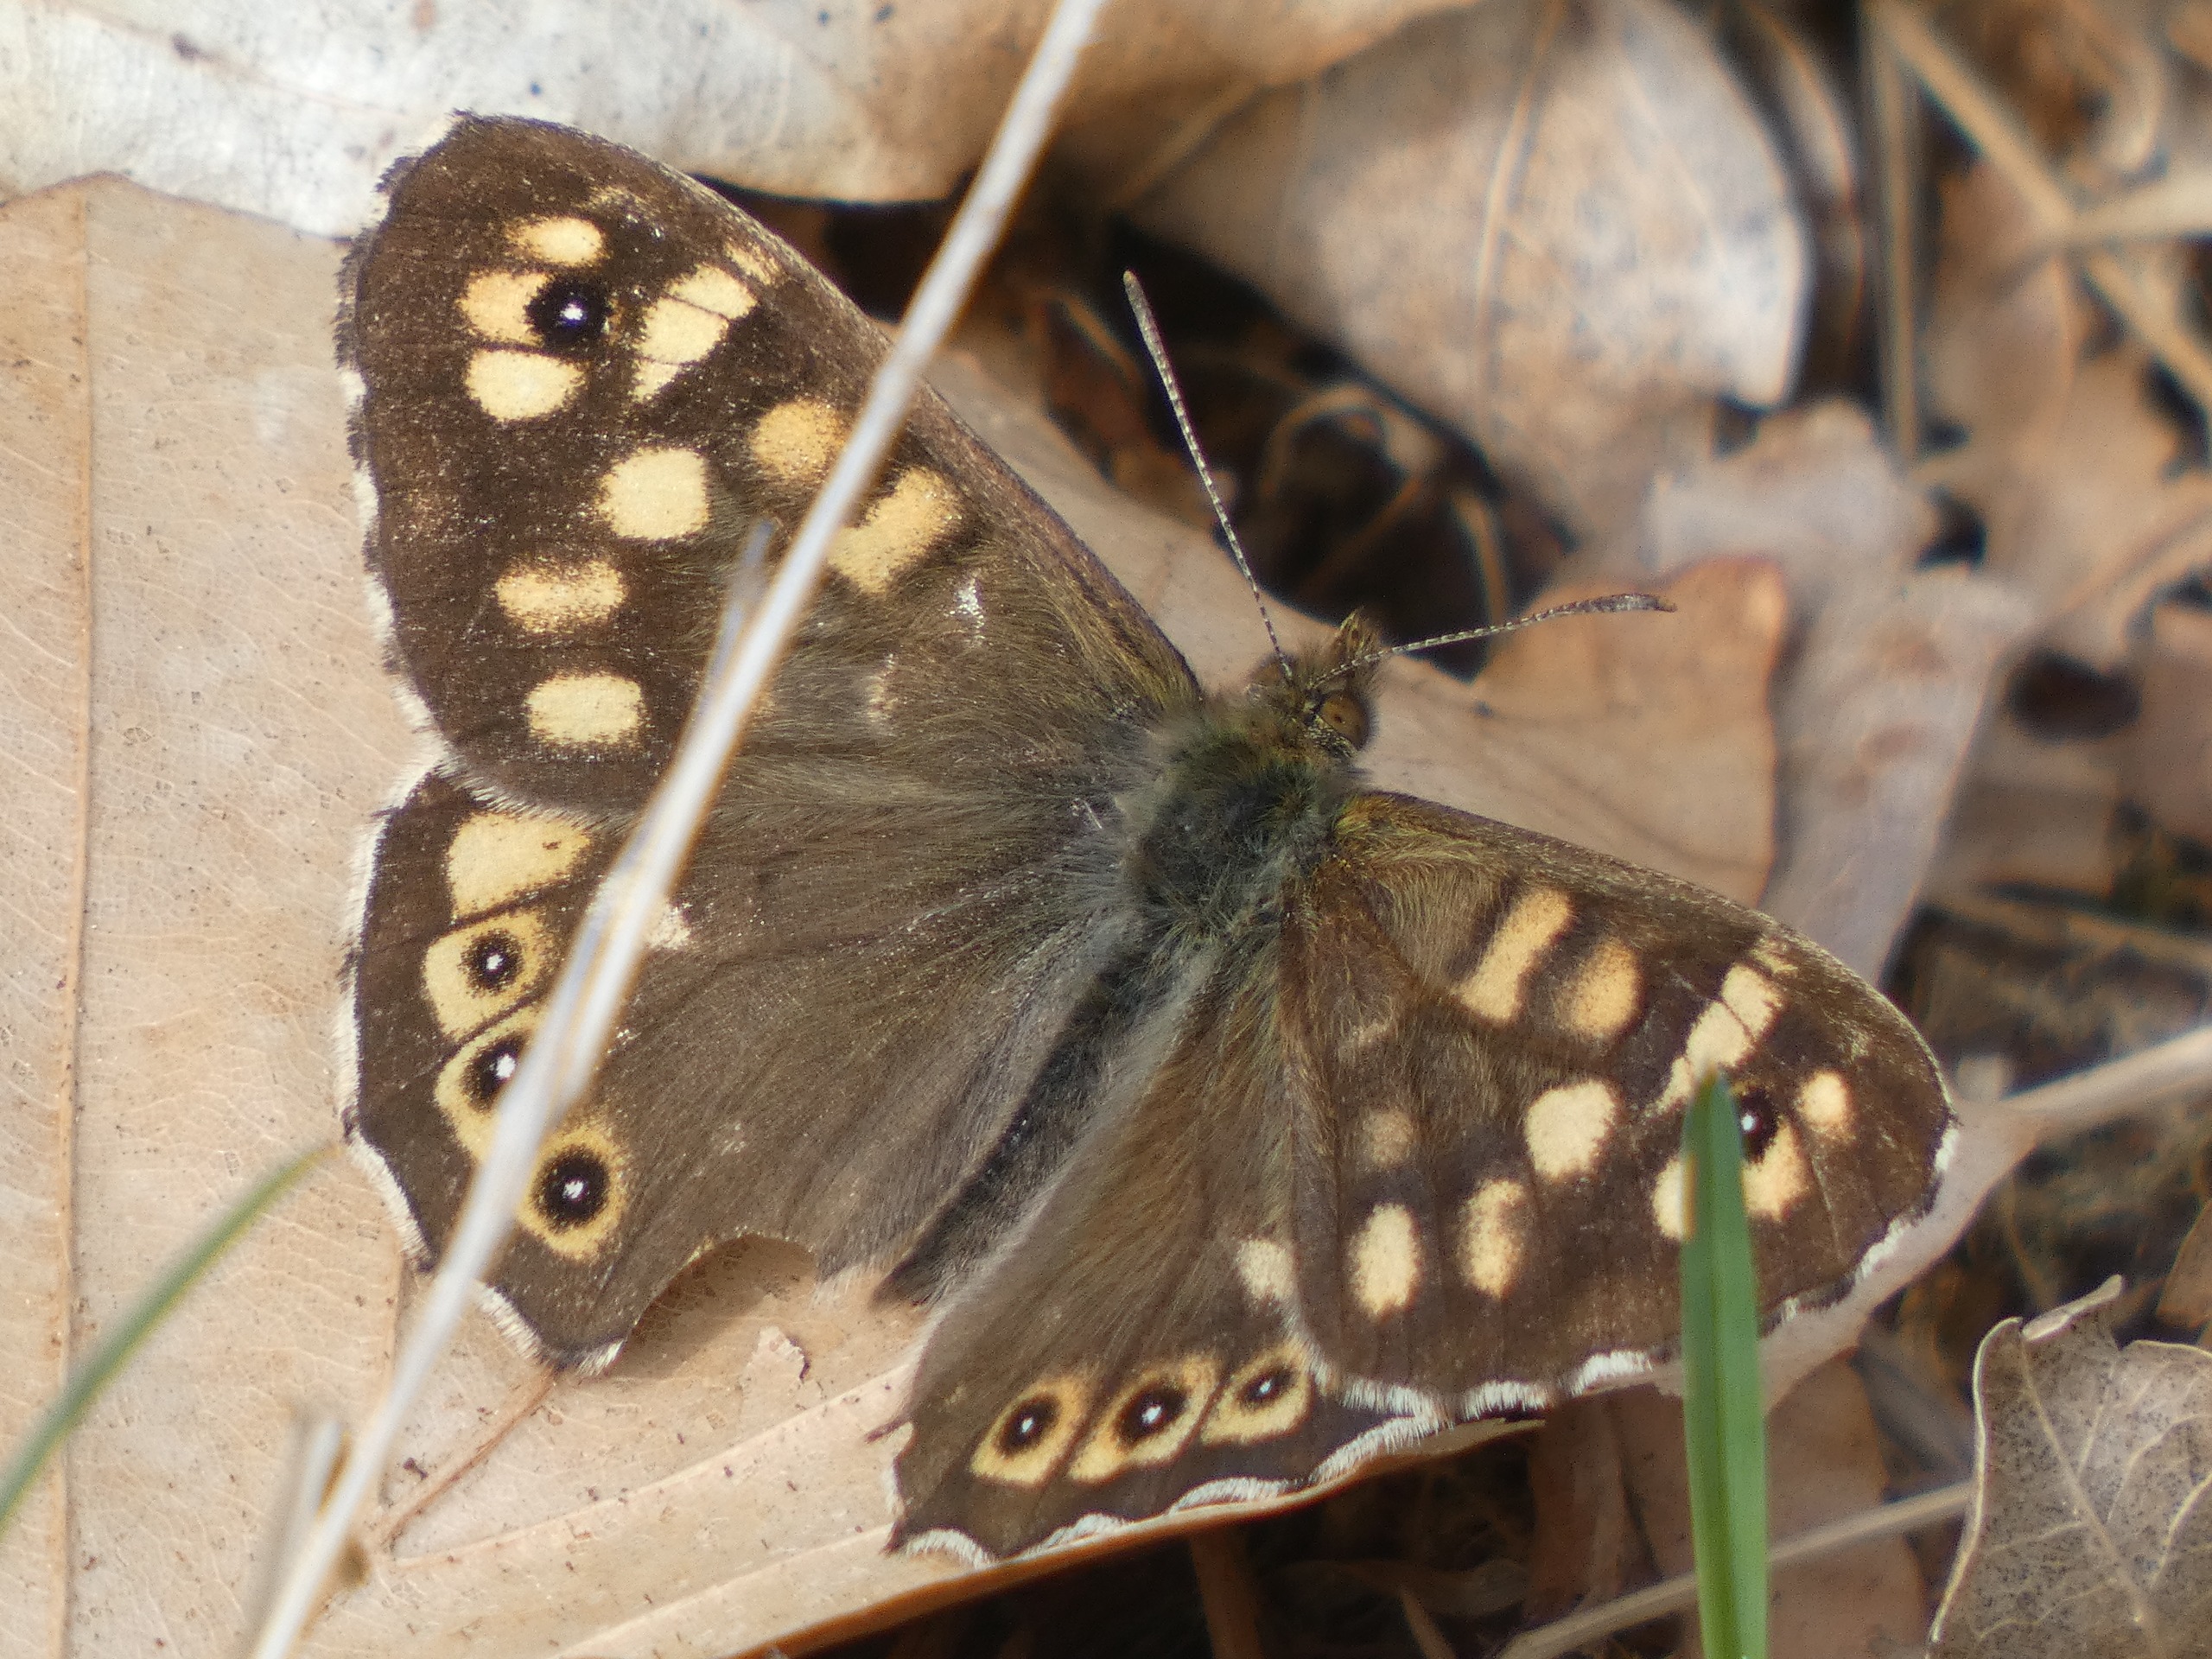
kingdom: Animalia
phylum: Arthropoda
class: Insecta
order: Lepidoptera
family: Nymphalidae
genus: Pararge
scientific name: Pararge aegeria
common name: Skovrandøje
